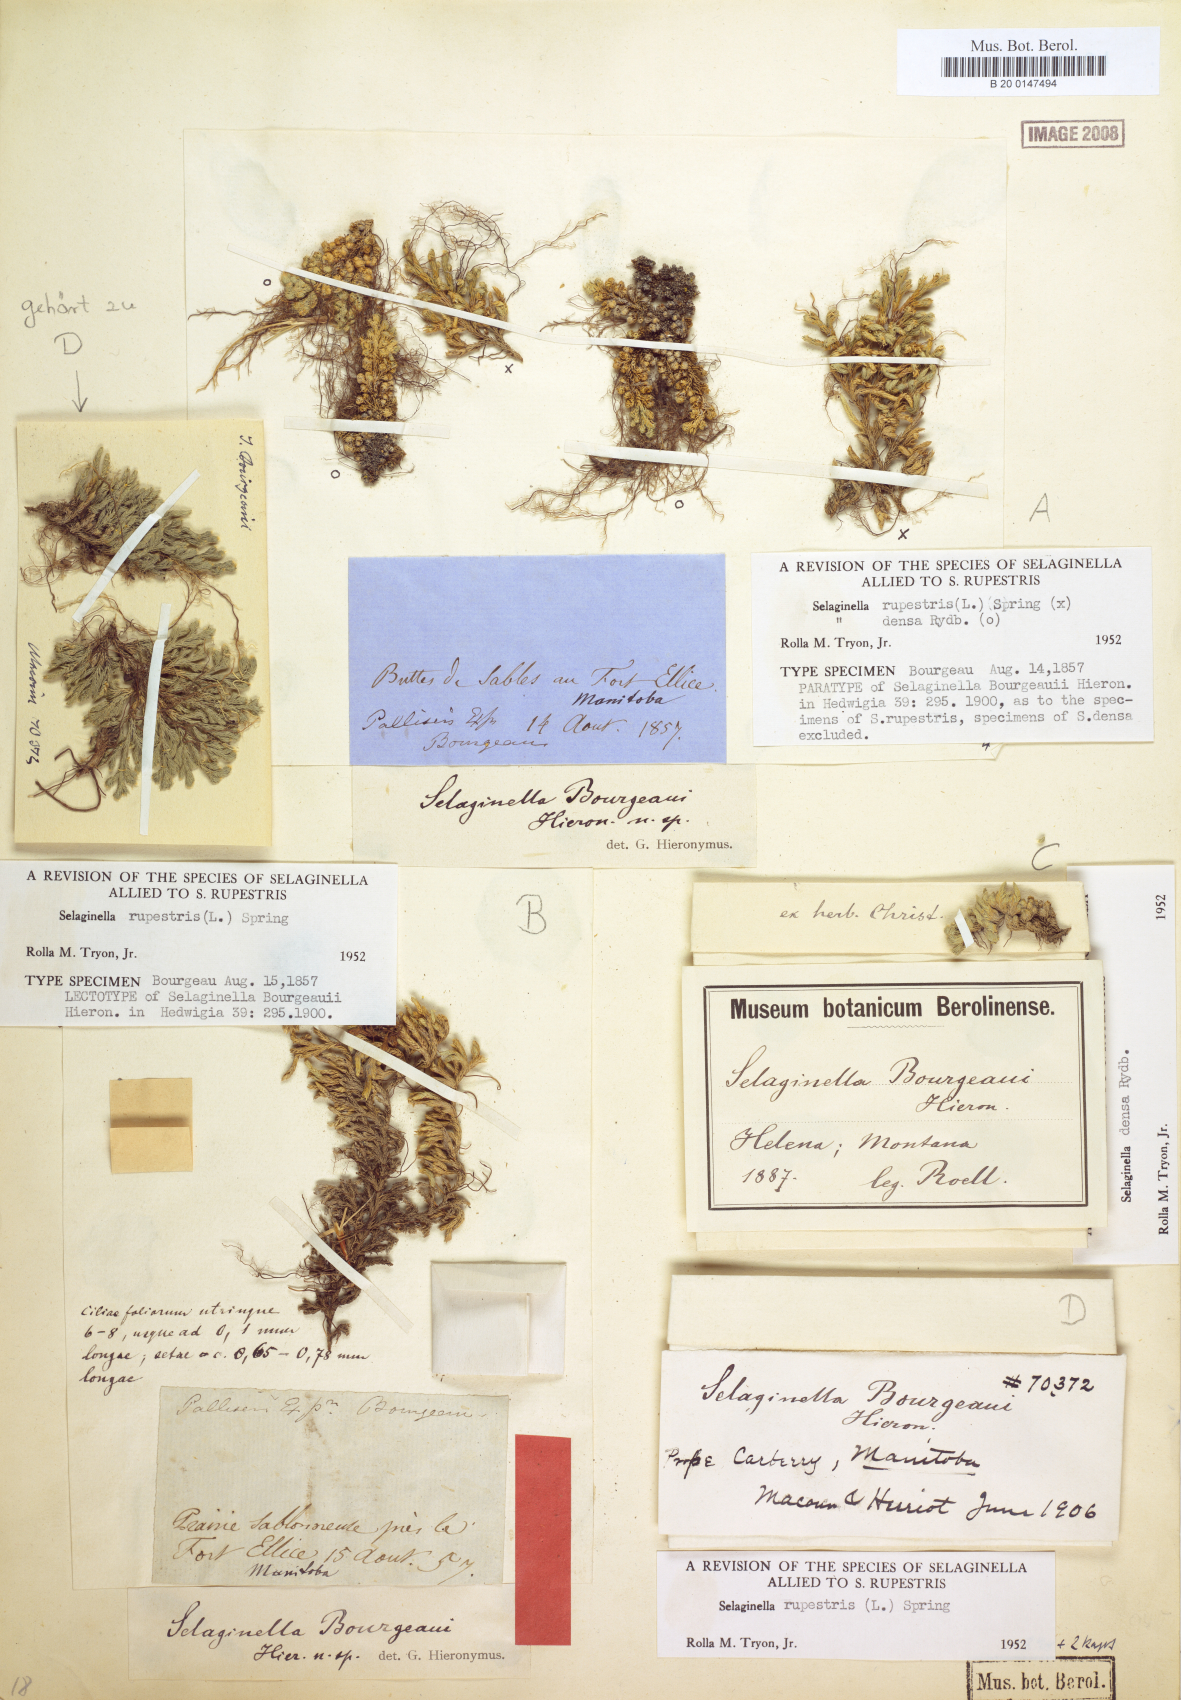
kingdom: Plantae
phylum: Tracheophyta
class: Lycopodiopsida
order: Selaginellales
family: Selaginellaceae
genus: Selaginella
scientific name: Selaginella rupestris
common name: Dwarf spikemoss
